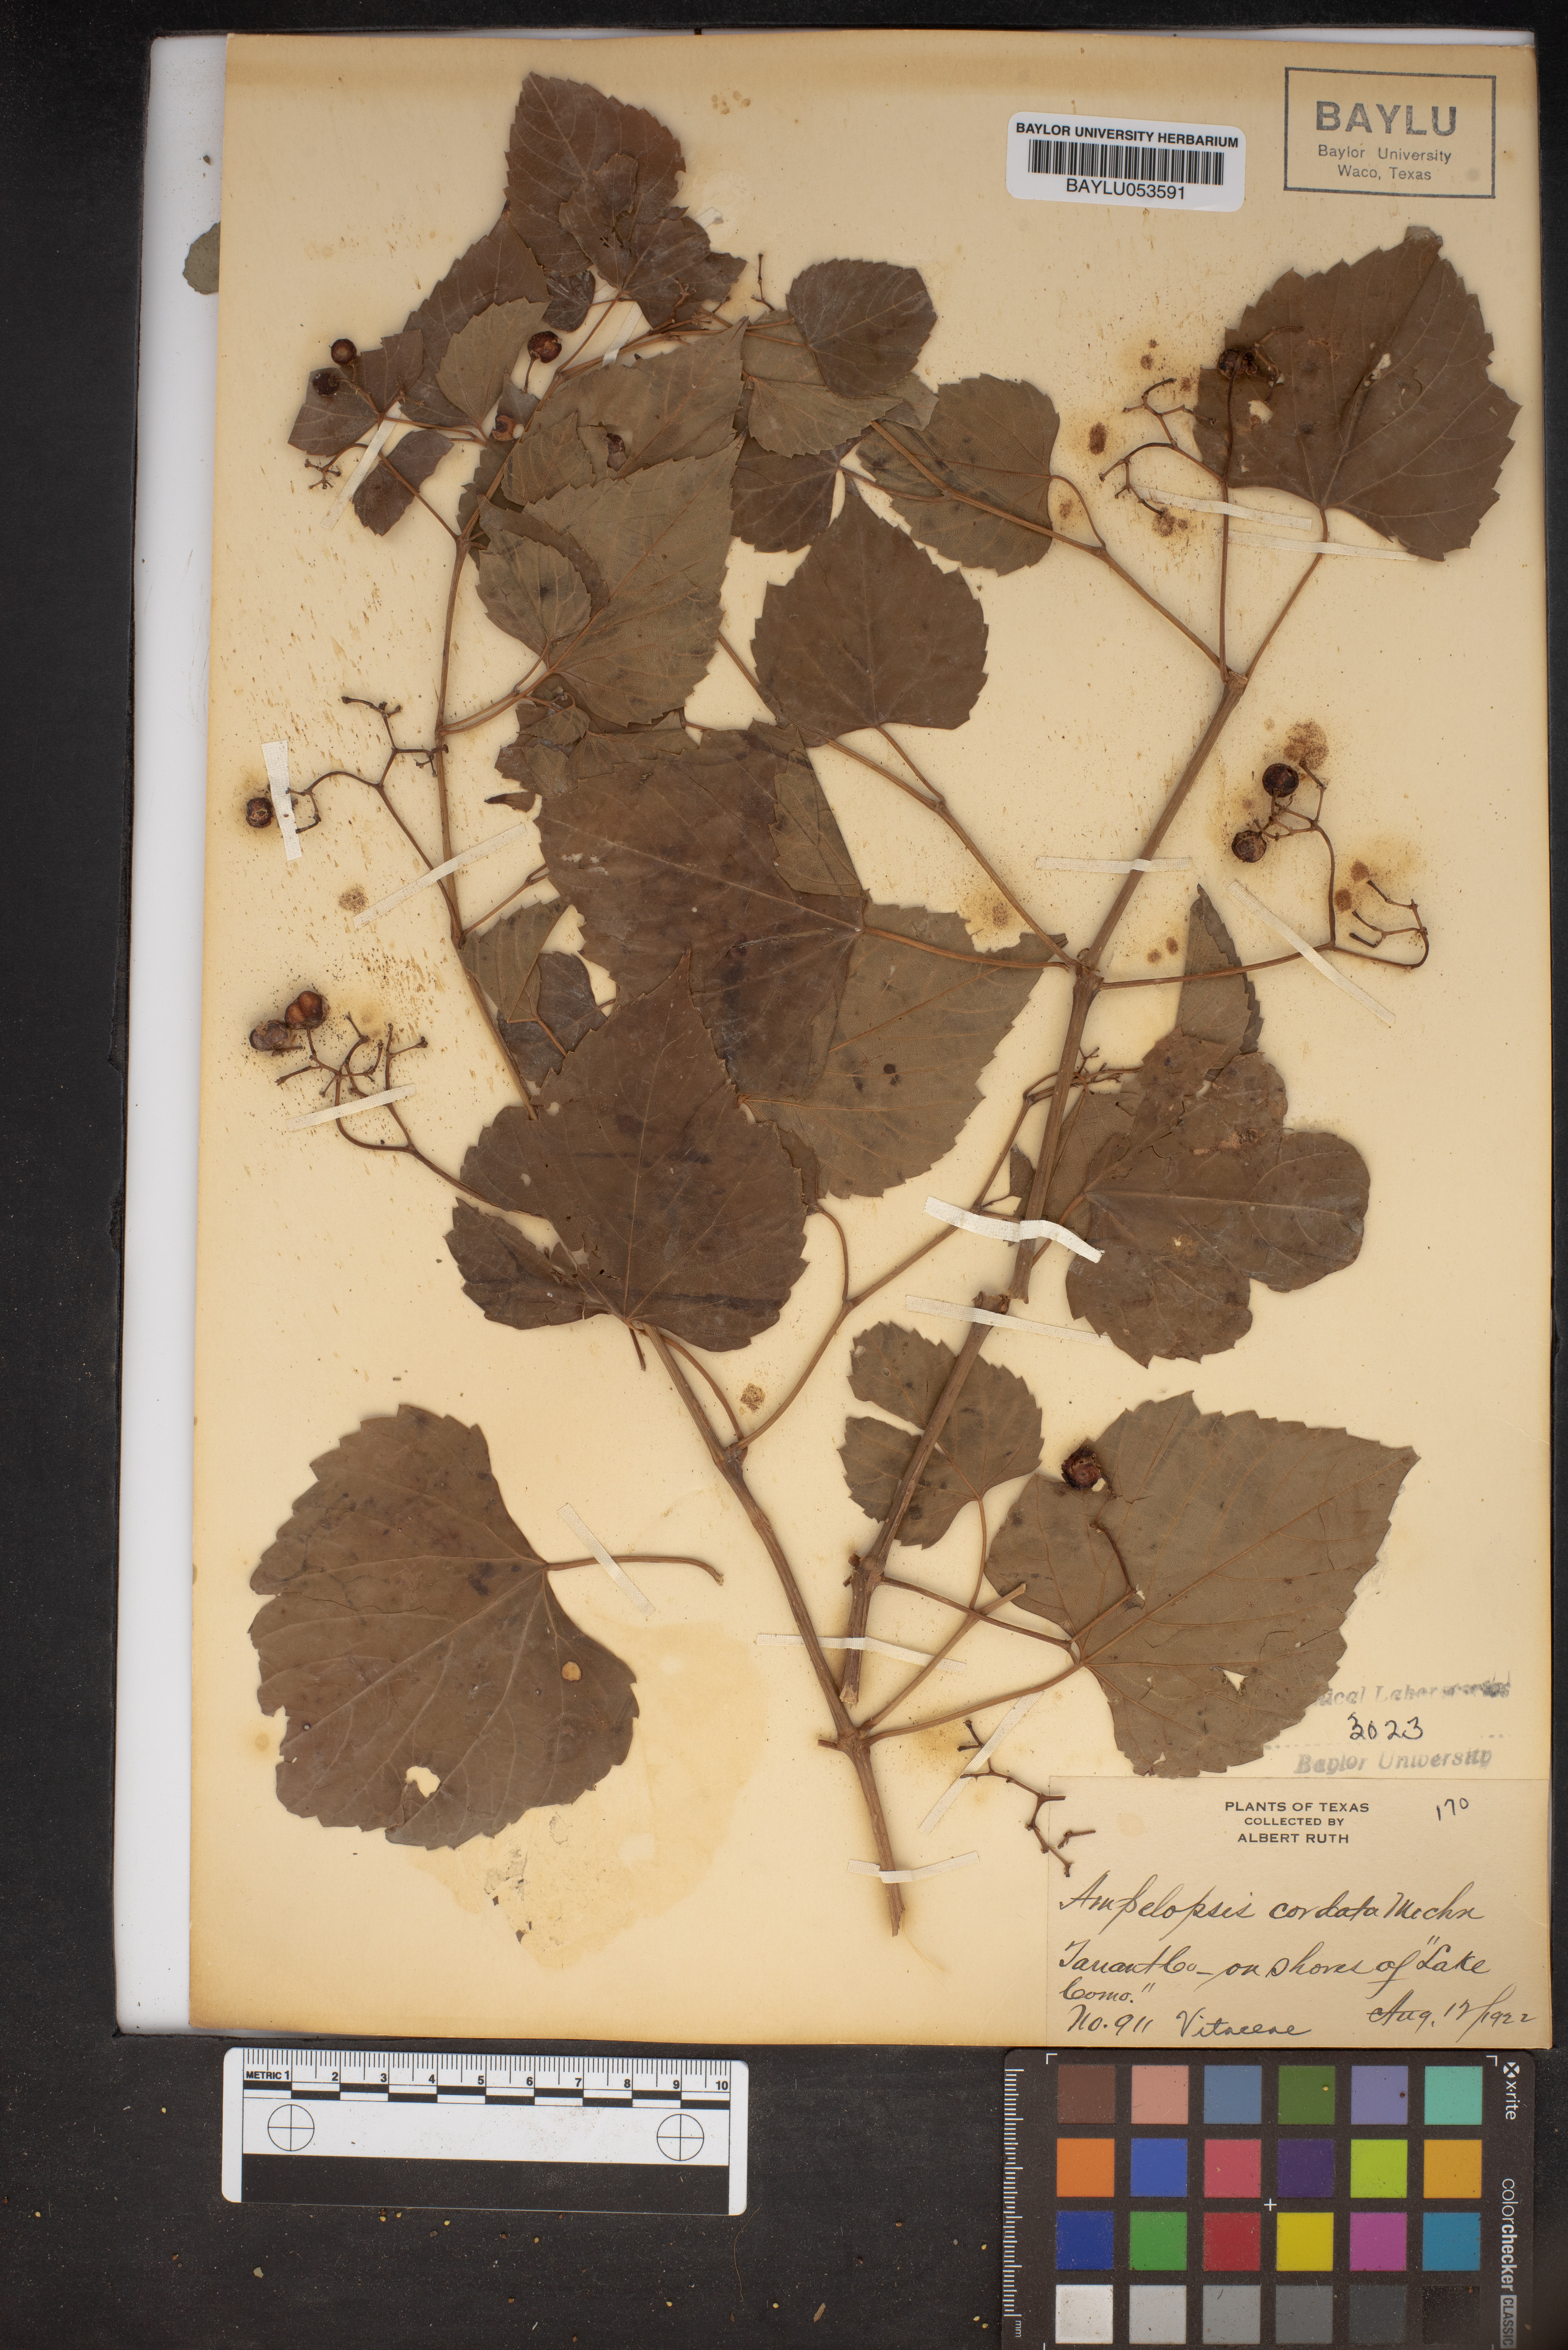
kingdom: Plantae
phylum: Tracheophyta
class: Magnoliopsida
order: Vitales
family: Vitaceae
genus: Ampelopsis
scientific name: Ampelopsis cordata
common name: Heart-leaf ampelopsis
